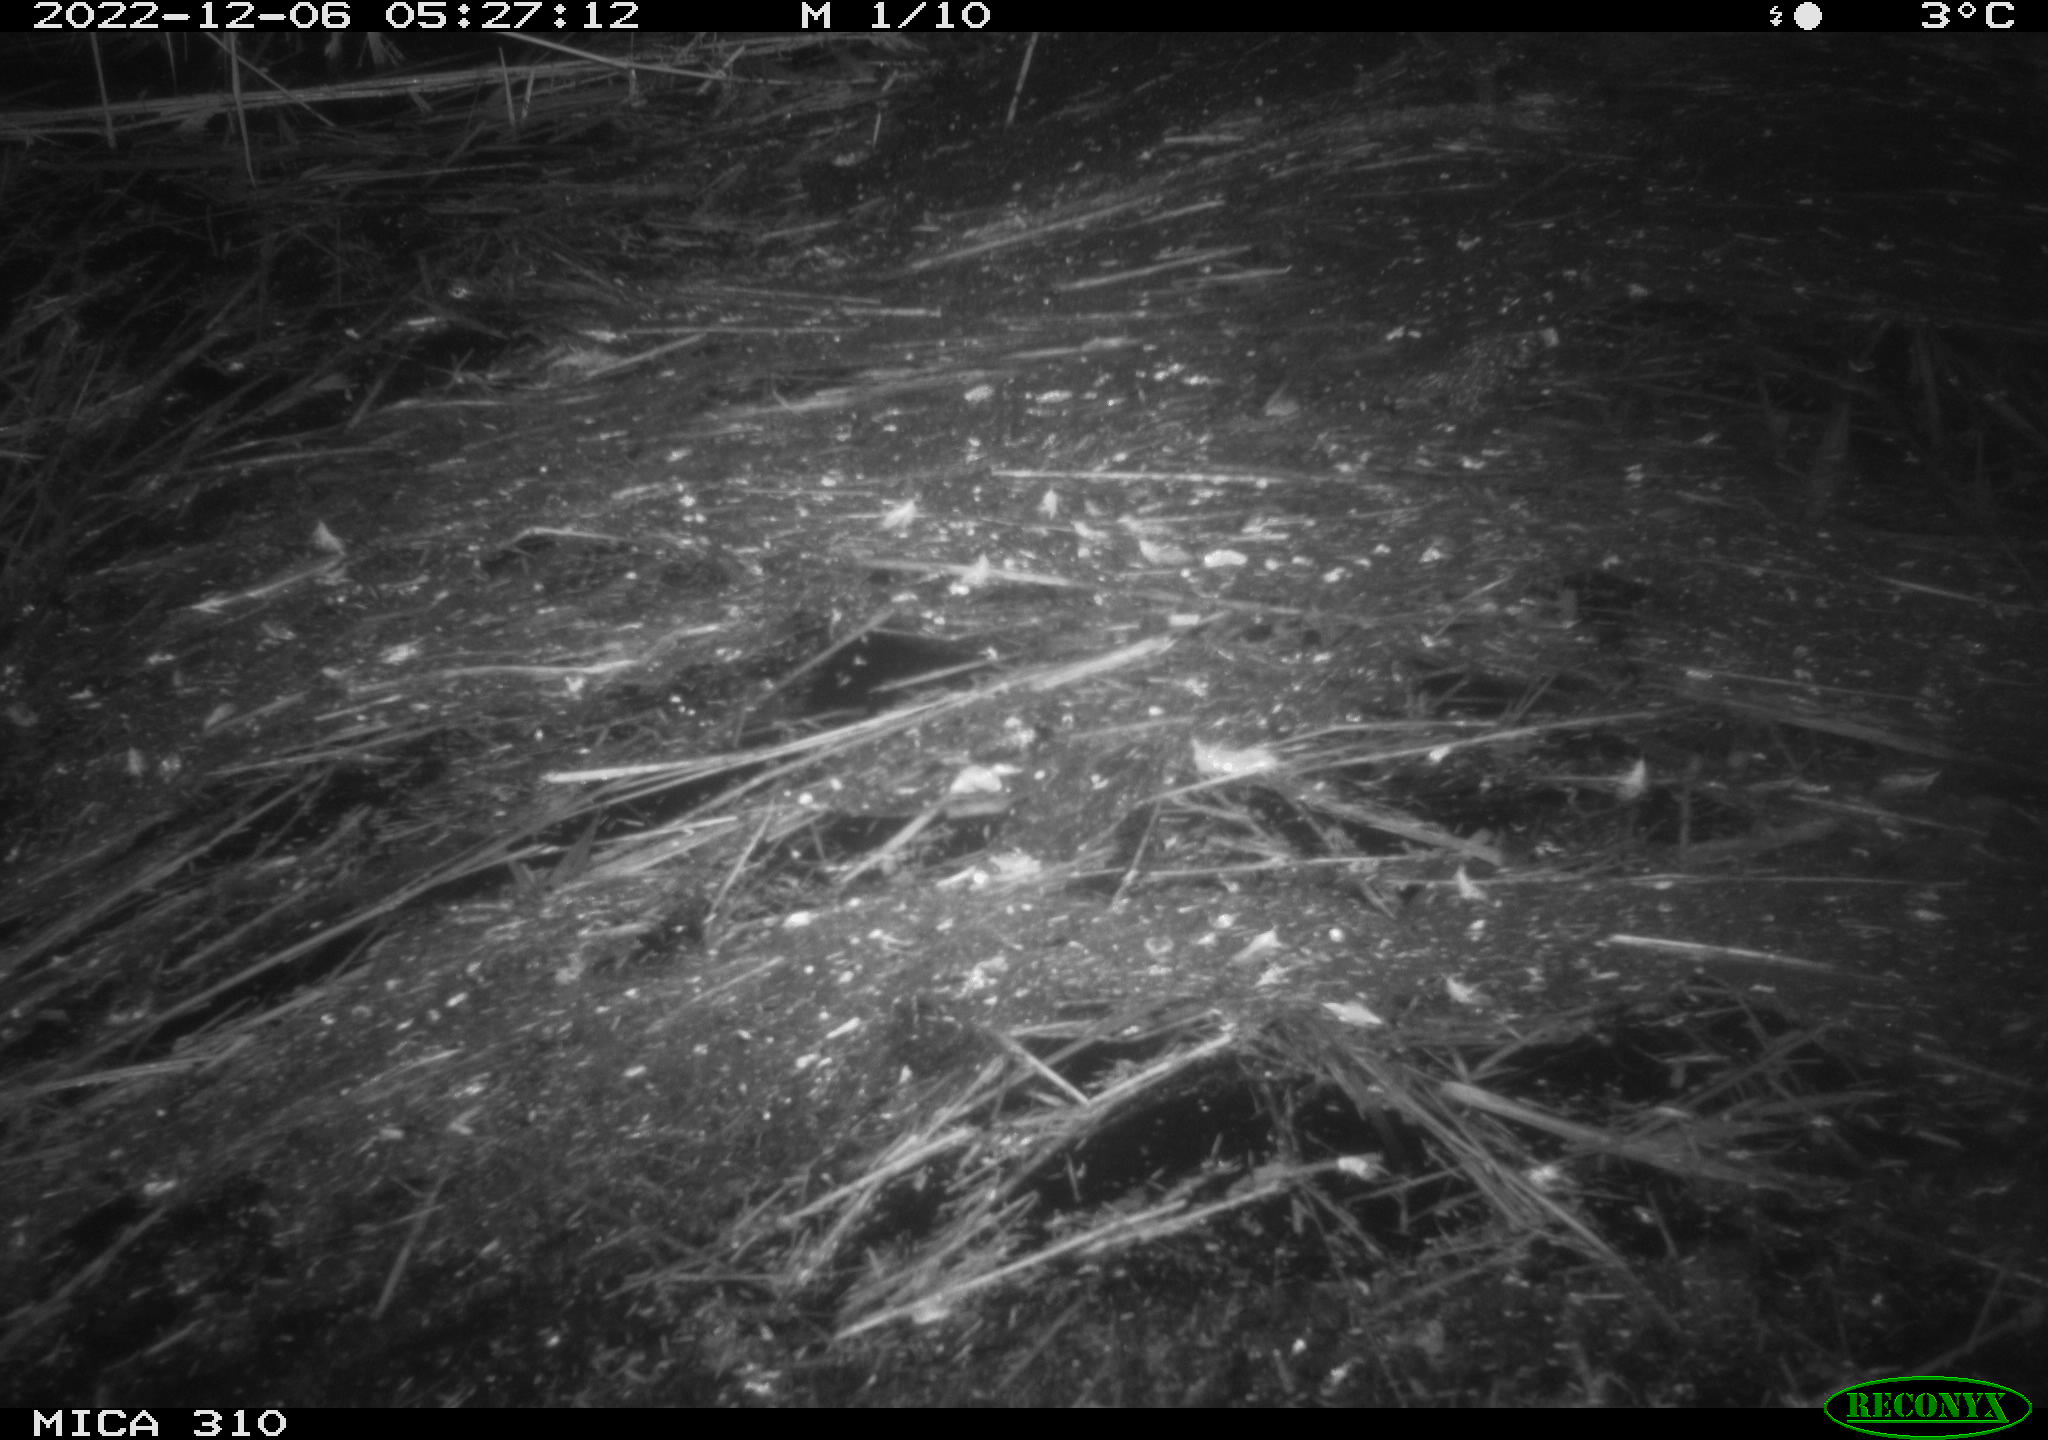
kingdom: Animalia
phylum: Chordata
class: Mammalia
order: Rodentia
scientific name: Rodentia
